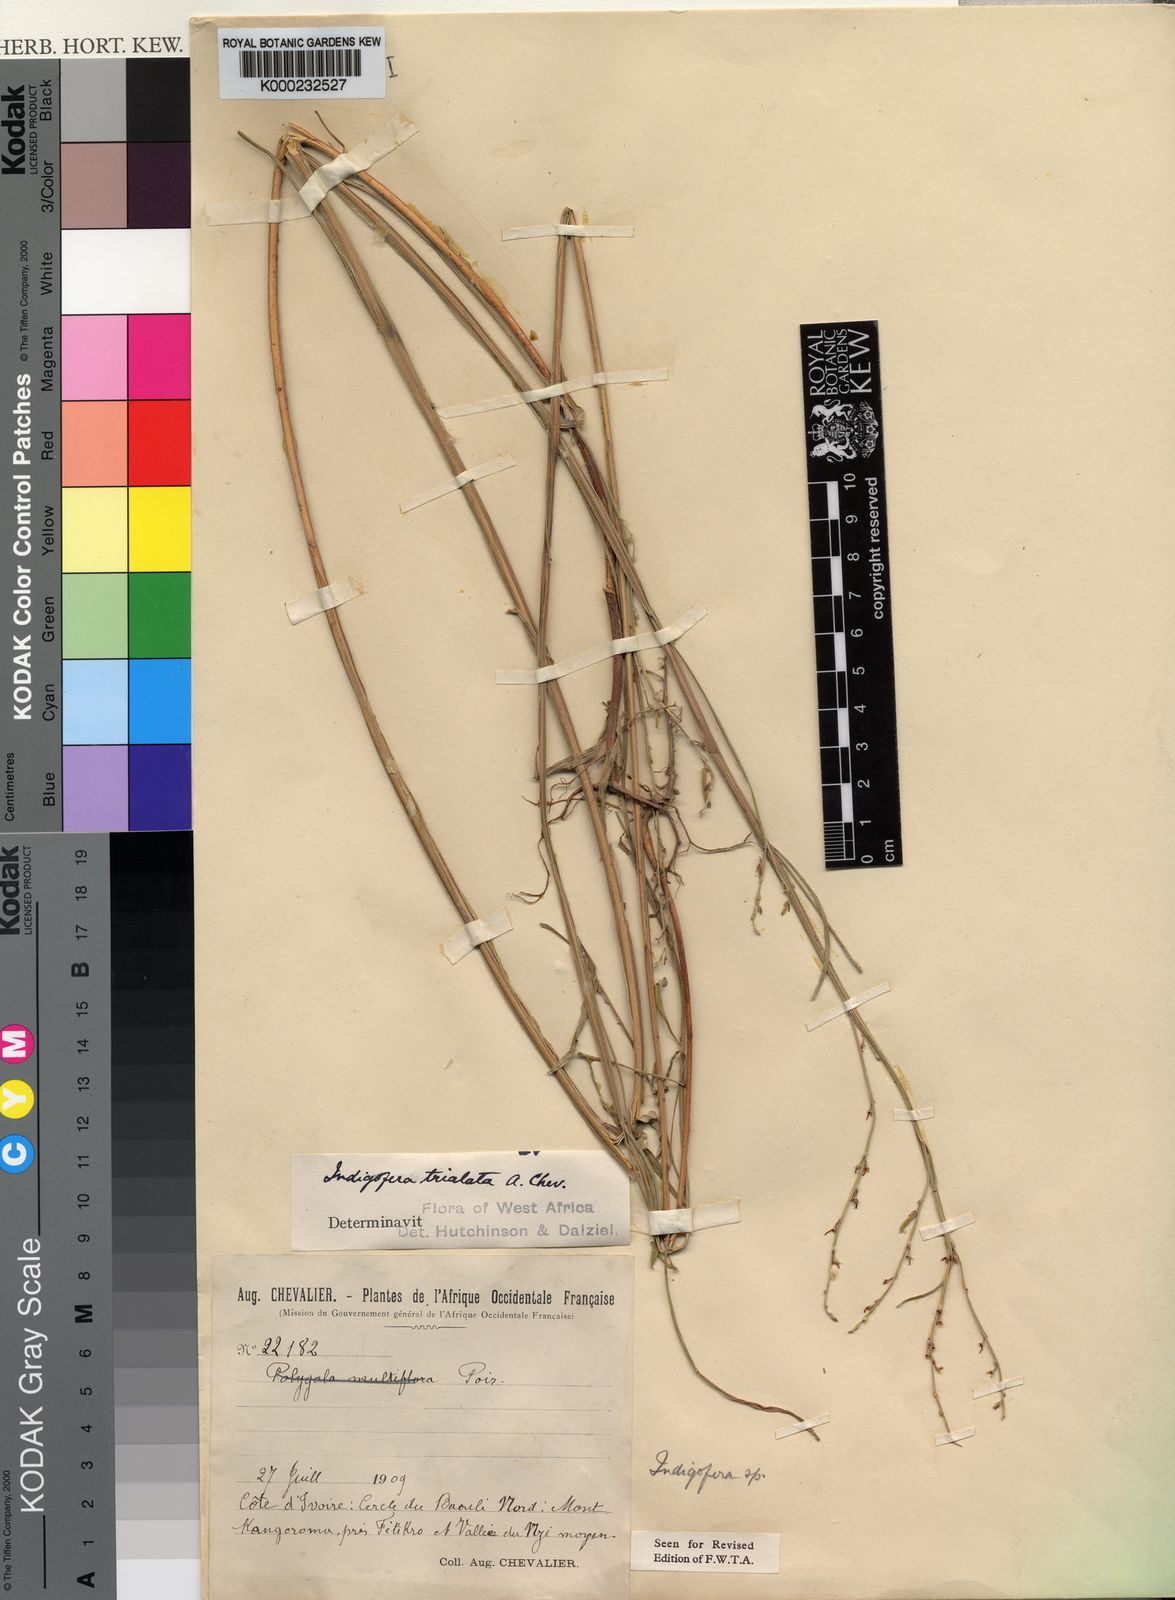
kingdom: Plantae
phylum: Tracheophyta
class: Magnoliopsida
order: Fabales
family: Fabaceae
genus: Indigofera
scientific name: Indigofera trialata
